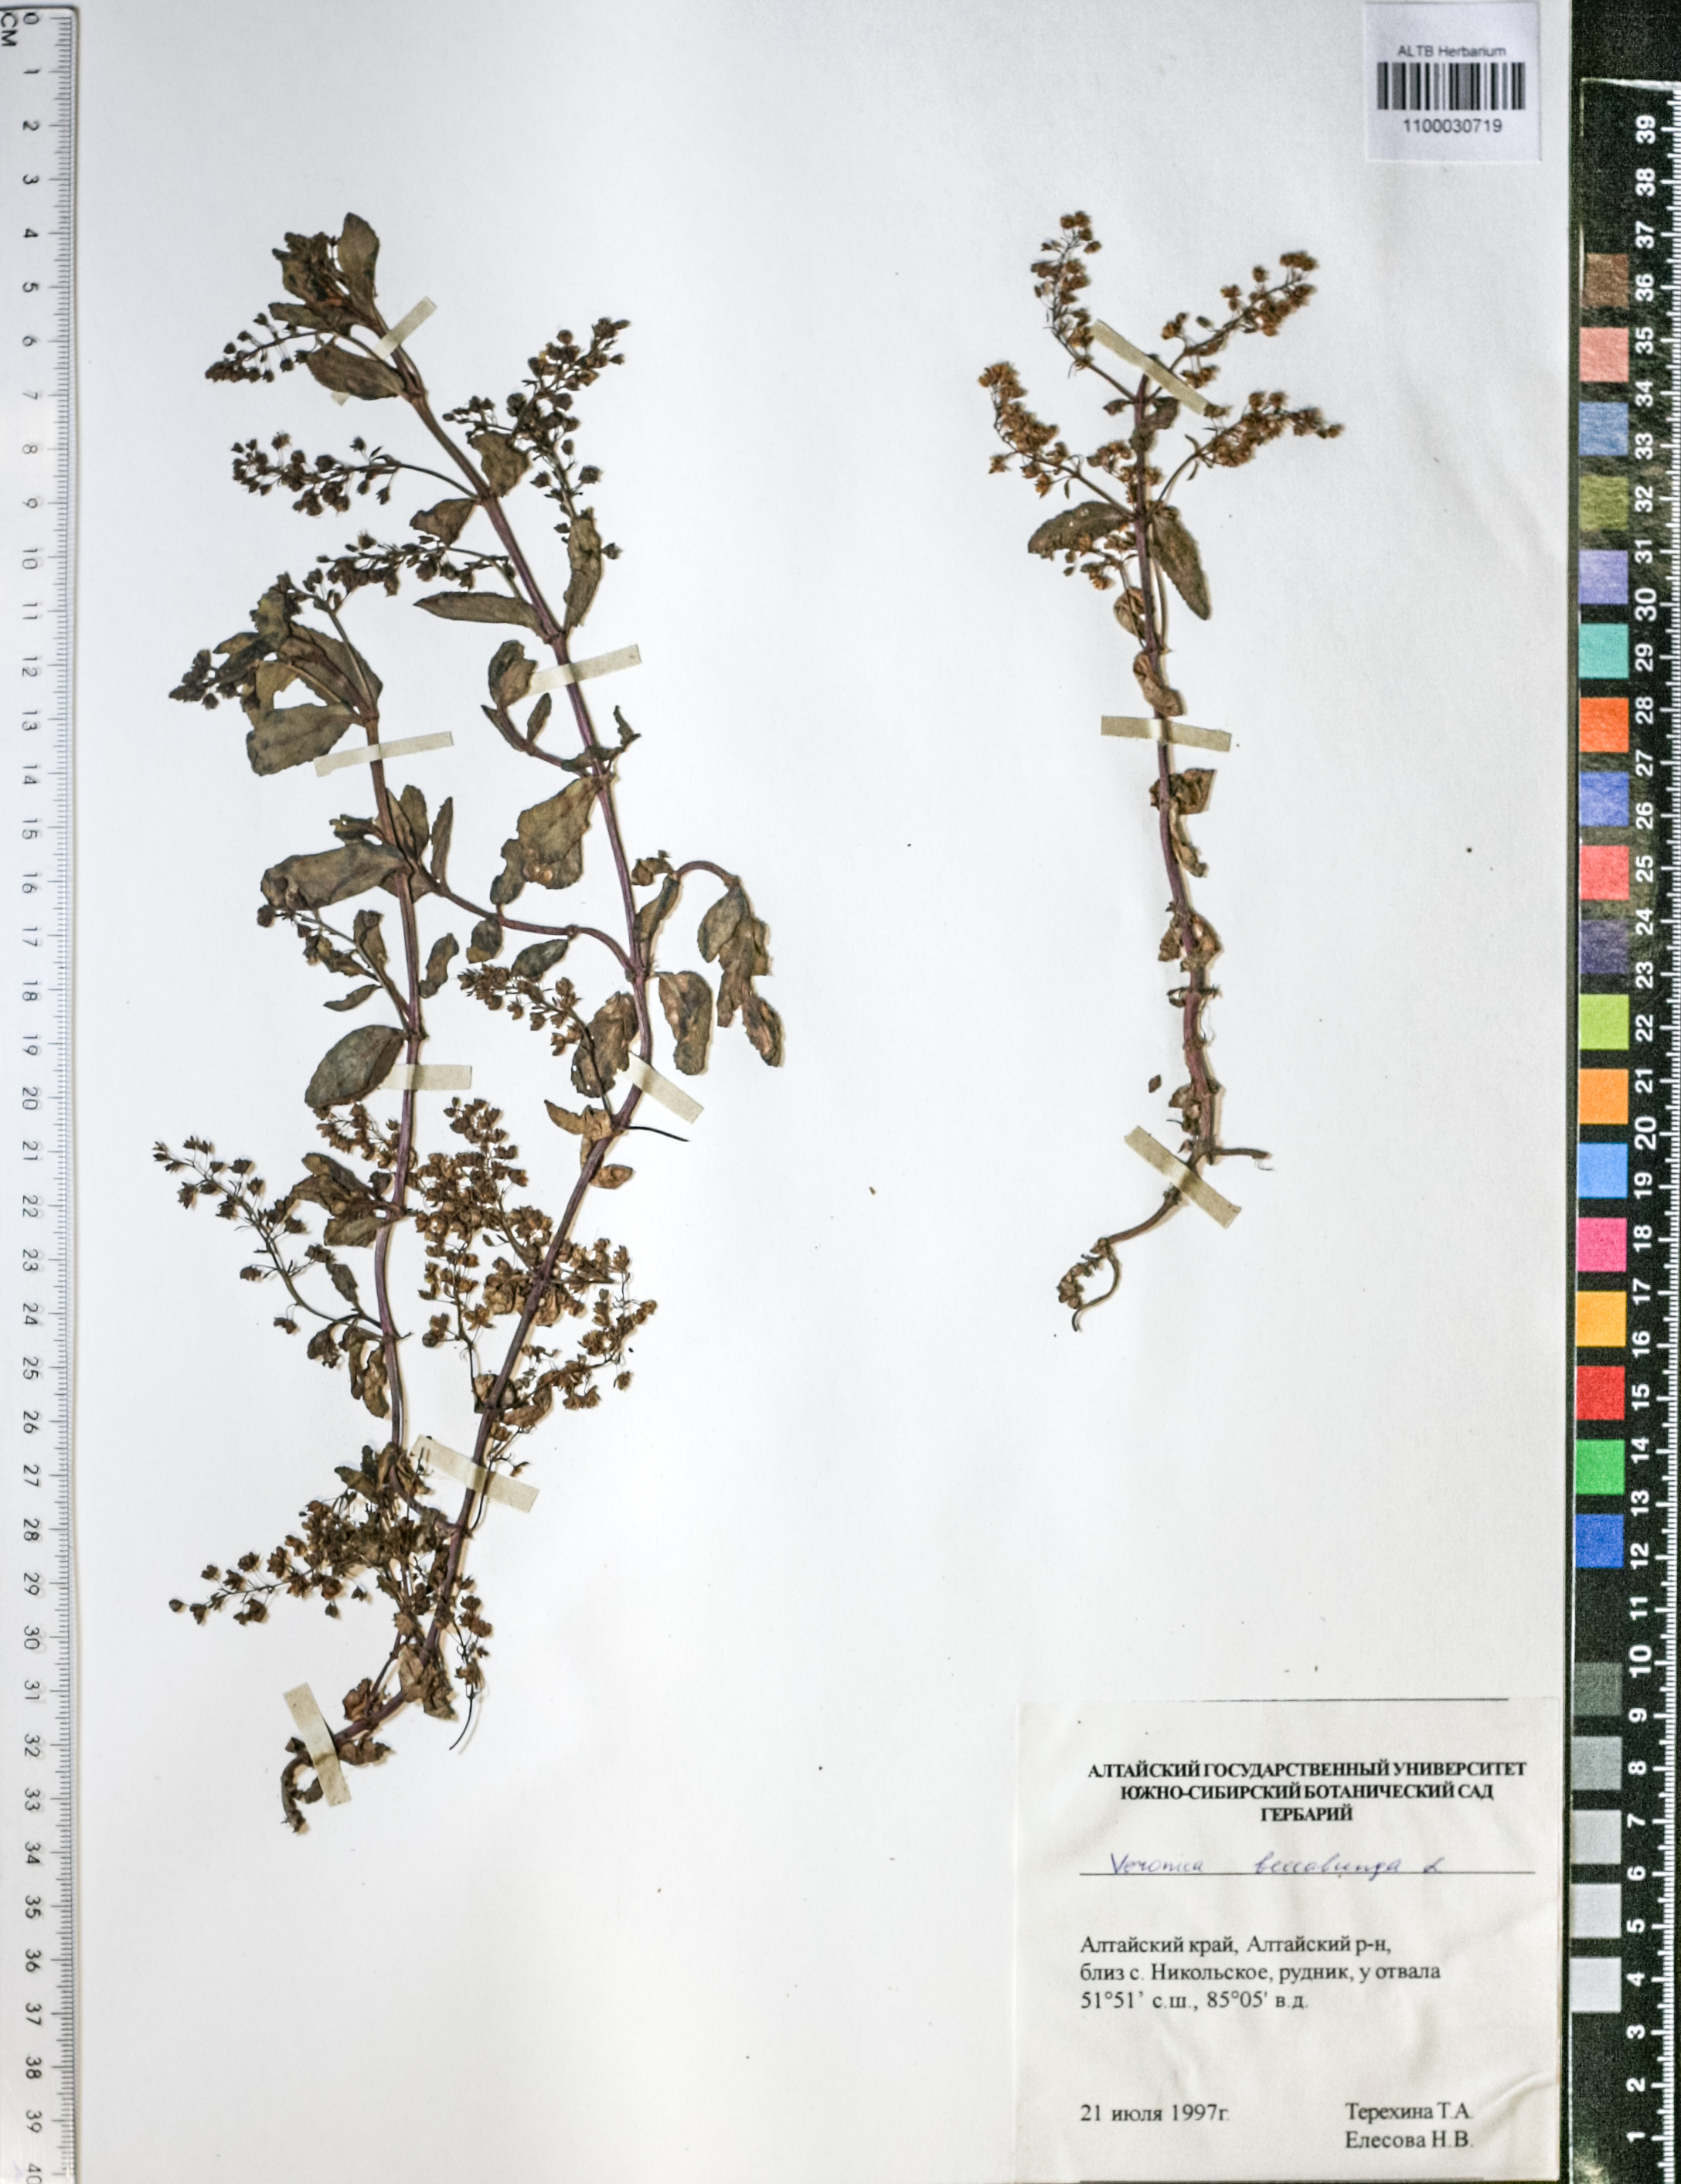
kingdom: Plantae
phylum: Tracheophyta
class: Magnoliopsida
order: Lamiales
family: Plantaginaceae
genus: Veronica
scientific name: Veronica beccabunga
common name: Brooklime
